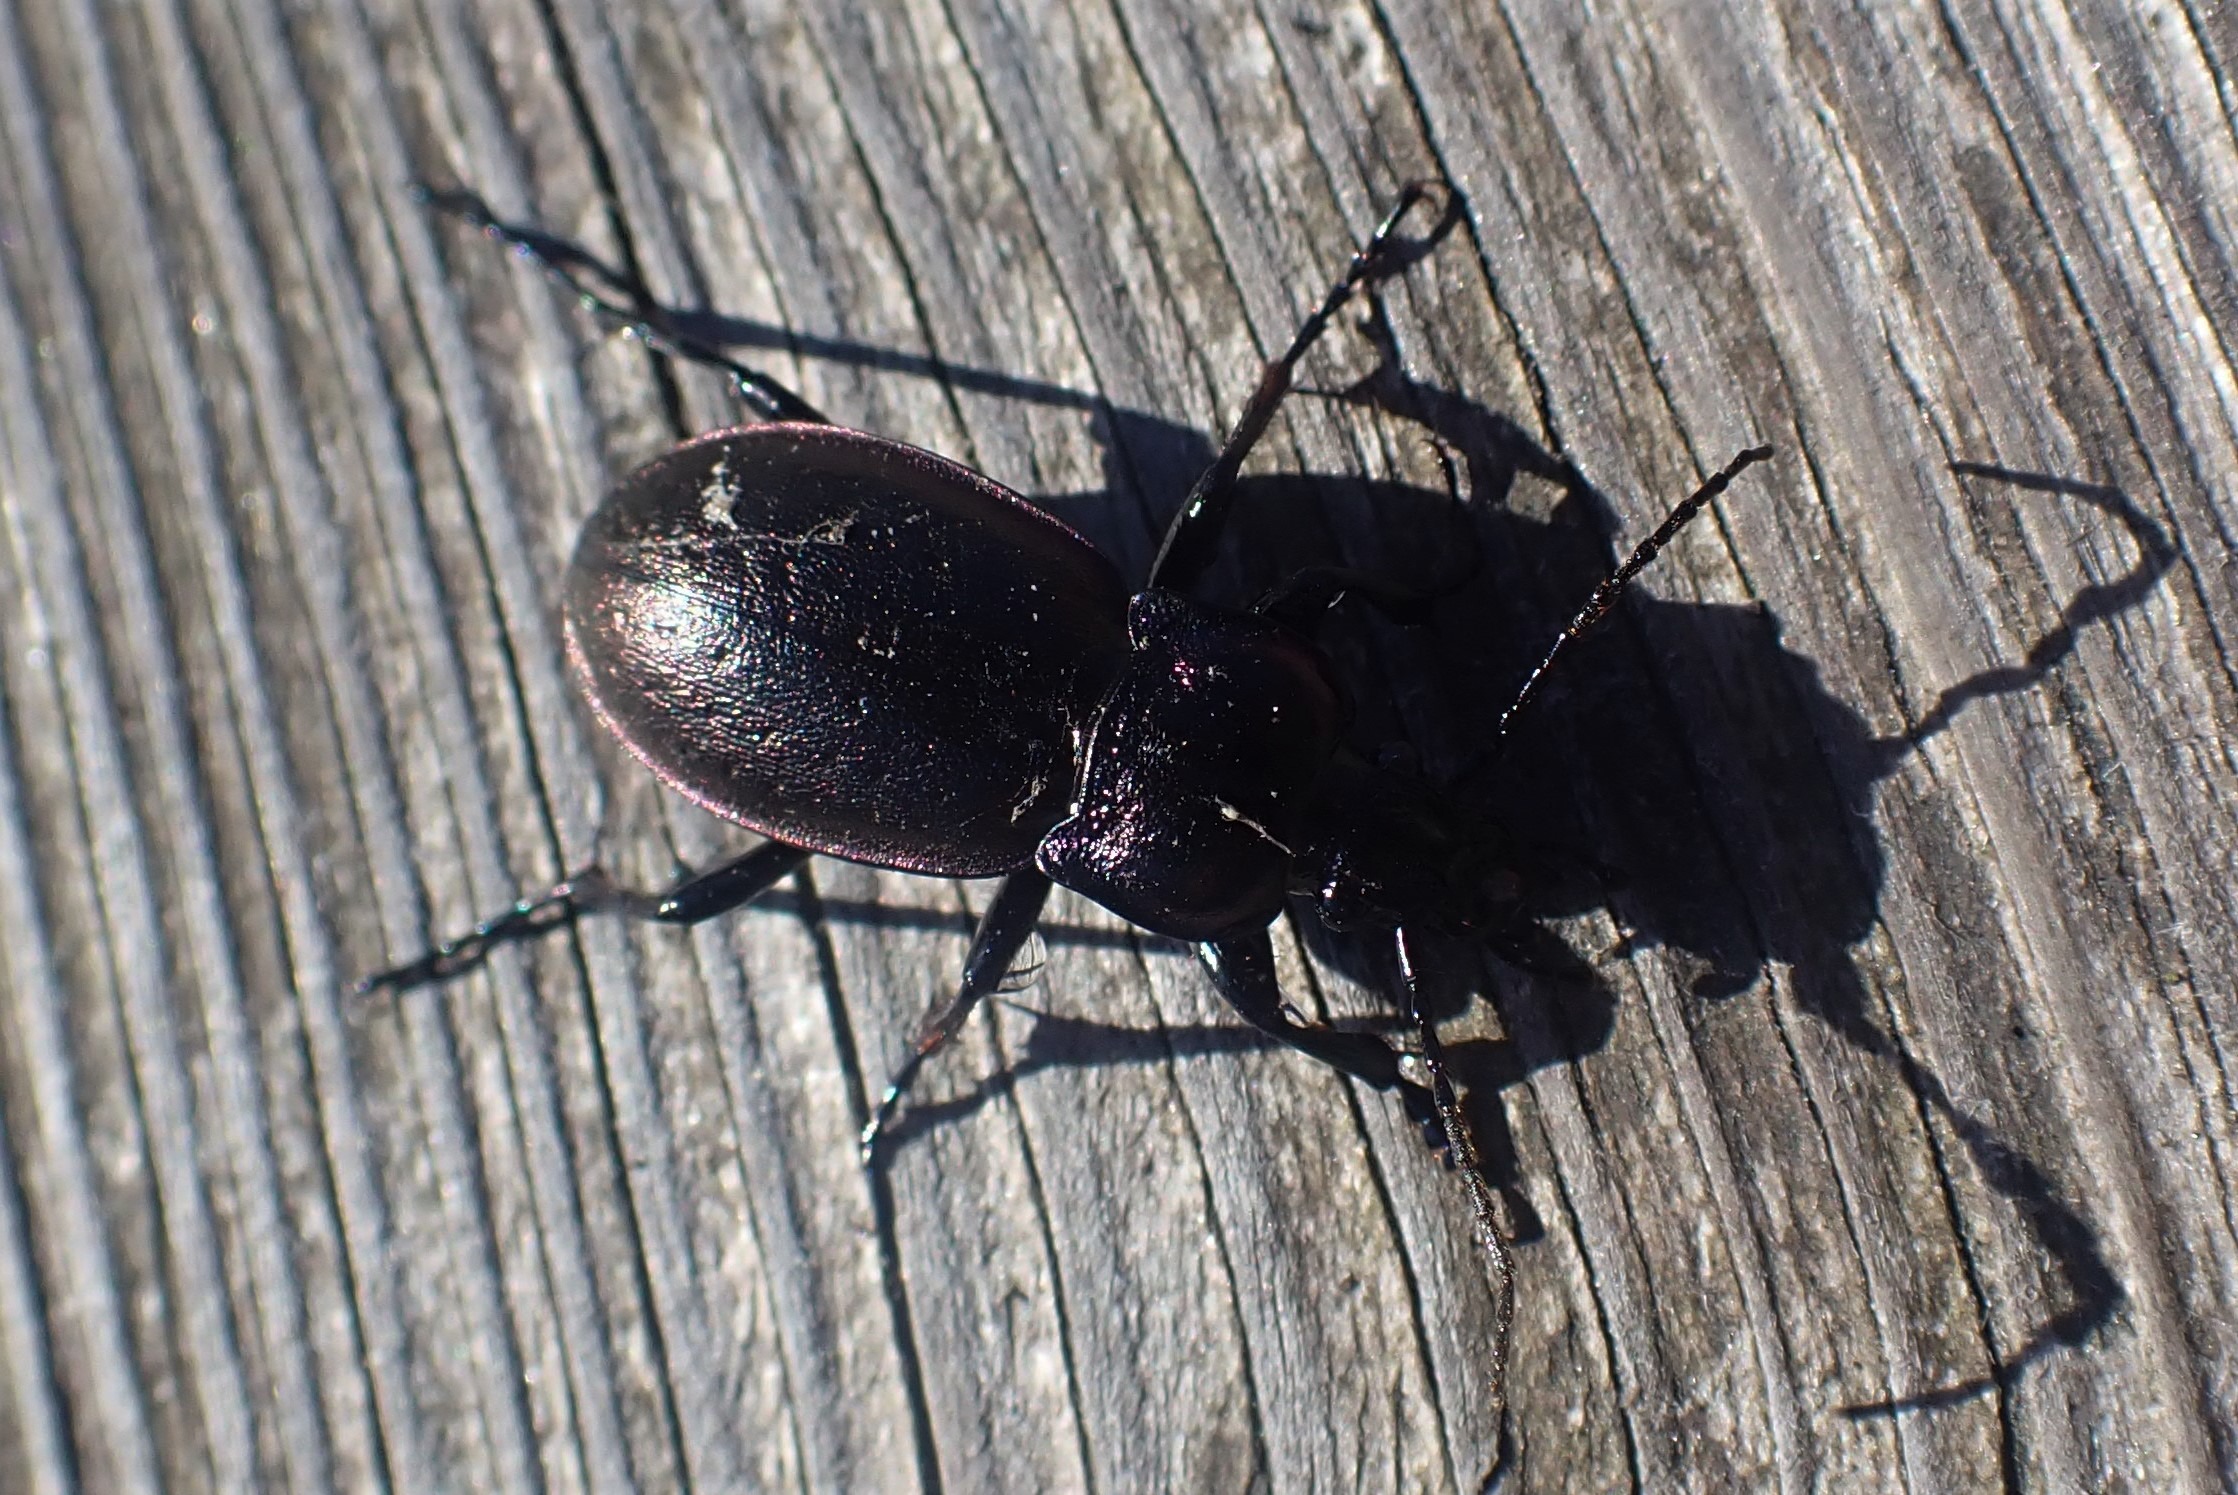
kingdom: Animalia
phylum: Arthropoda
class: Insecta
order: Coleoptera
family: Carabidae
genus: Carabus
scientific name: Carabus nemoralis
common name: Kratløber
